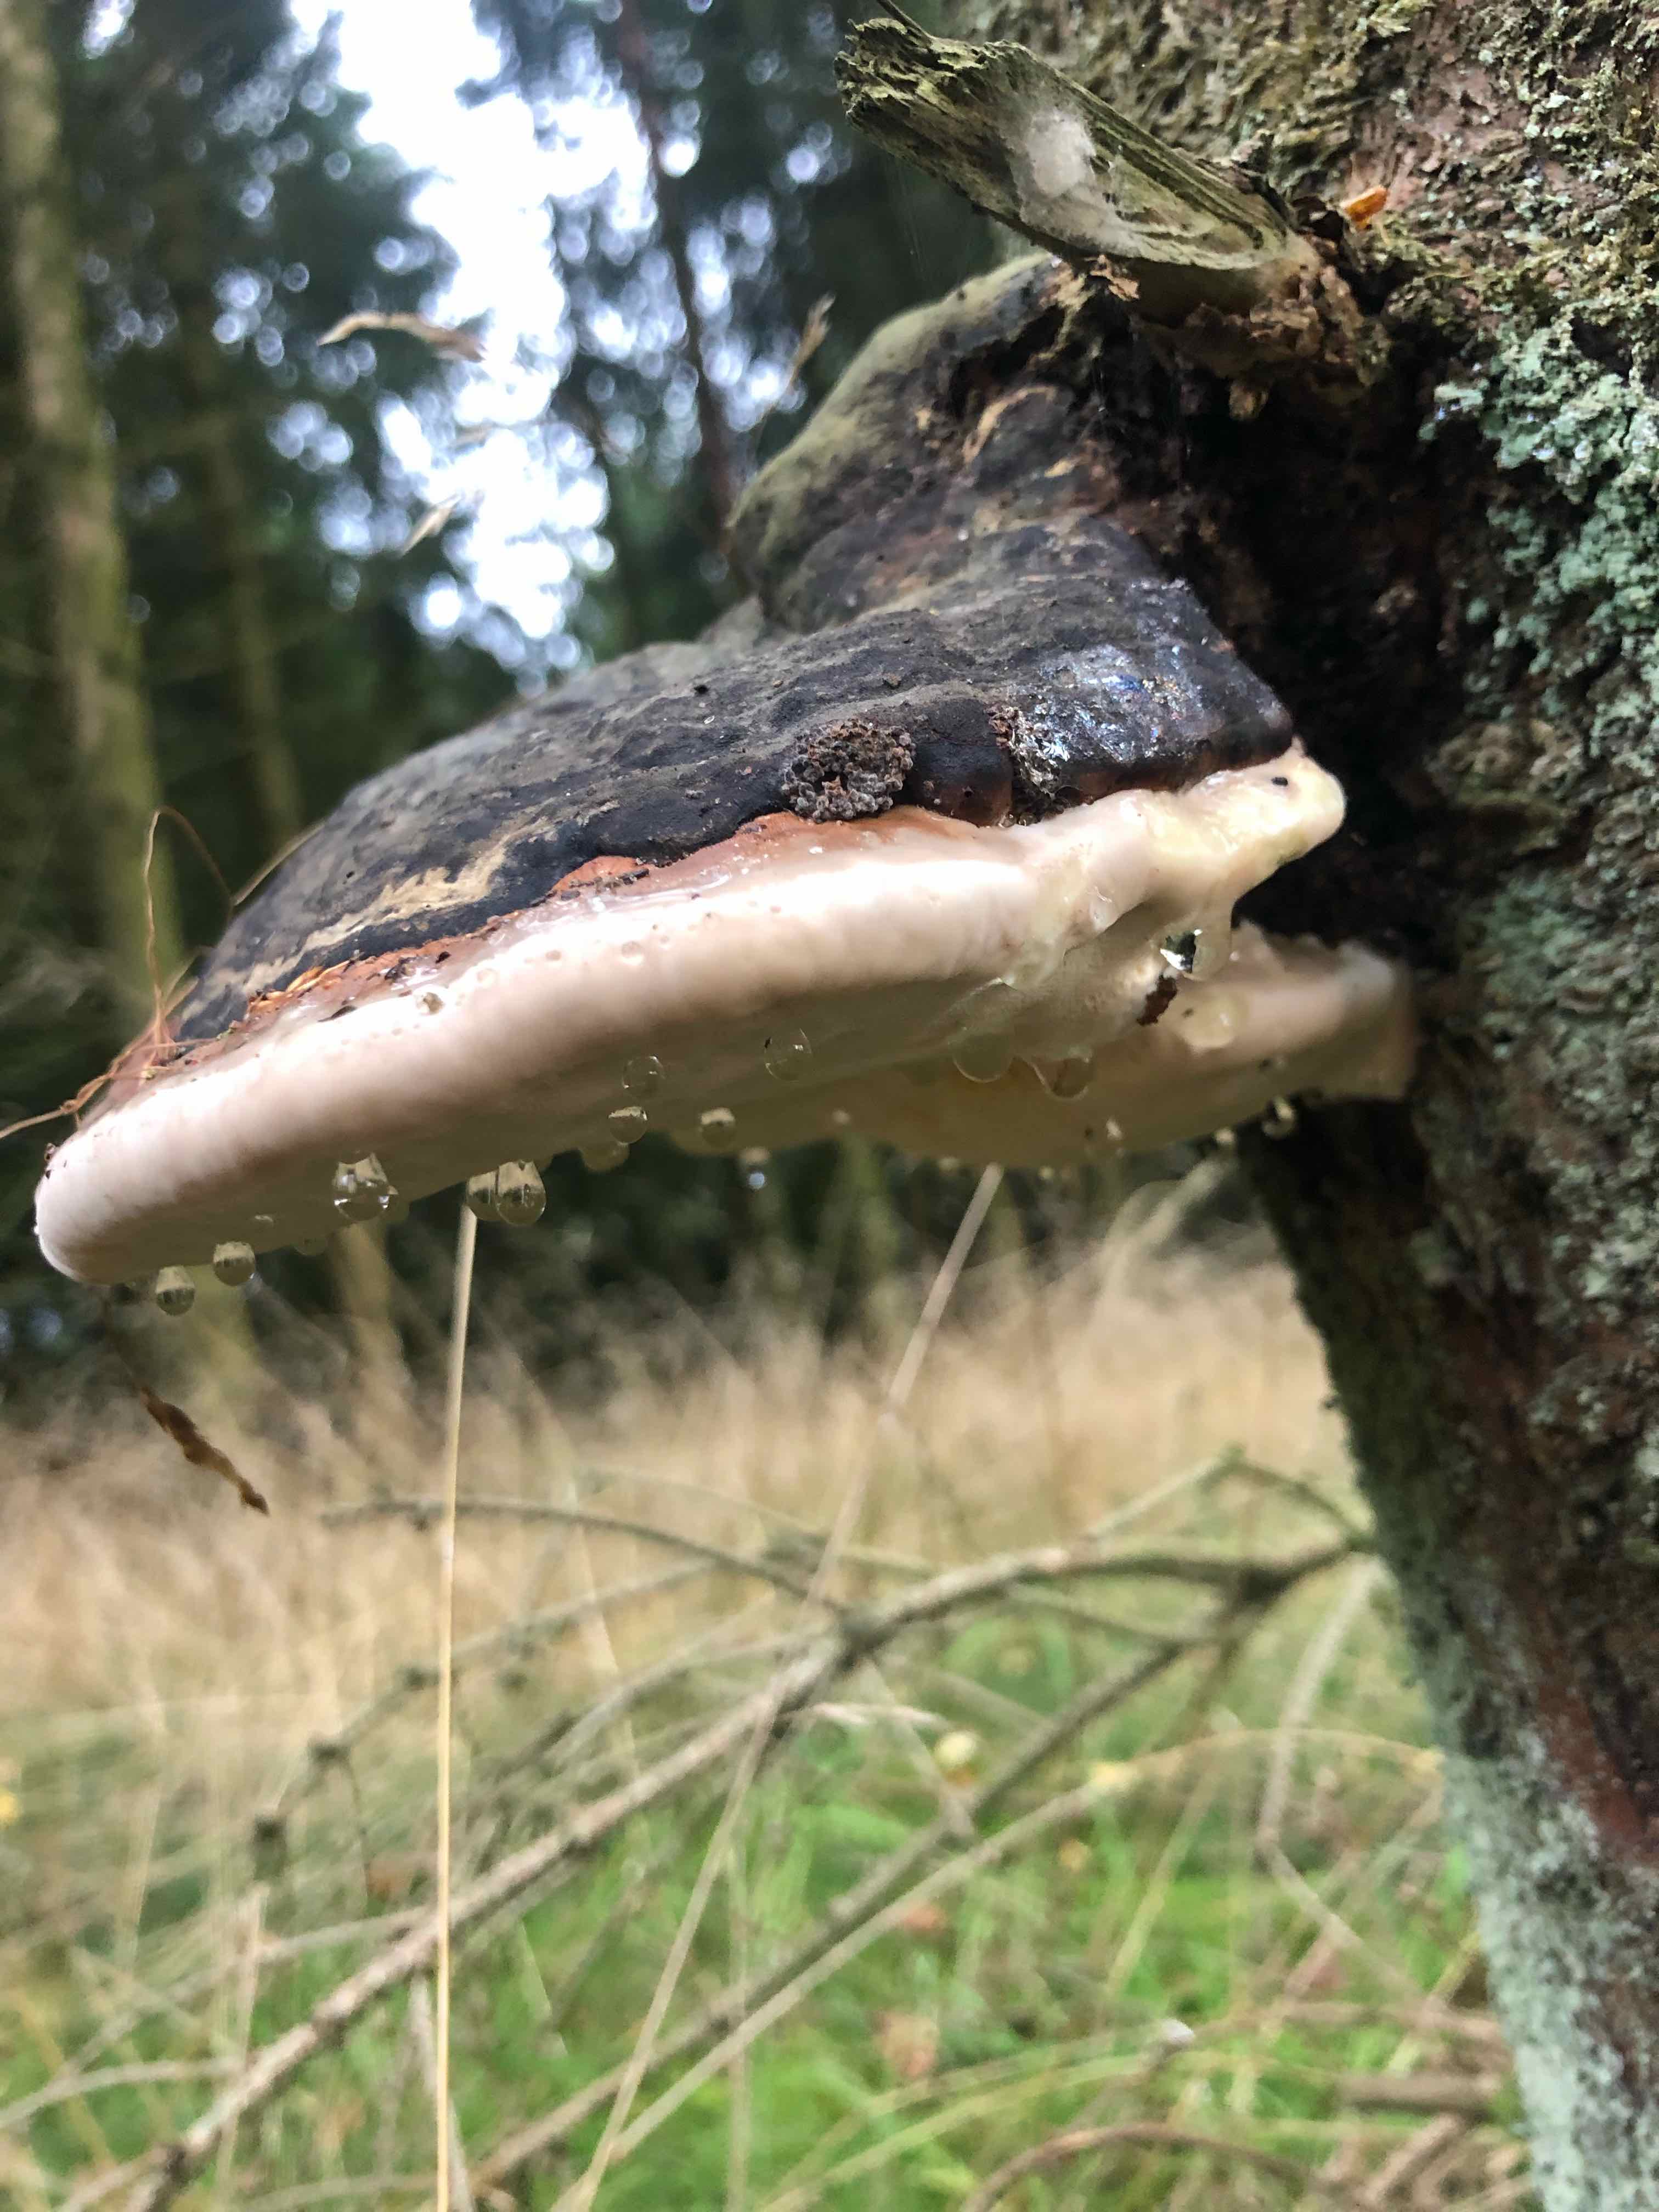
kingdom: Fungi
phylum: Basidiomycota
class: Agaricomycetes
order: Polyporales
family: Fomitopsidaceae
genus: Fomitopsis
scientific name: Fomitopsis pinicola
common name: randbæltet hovporesvamp
